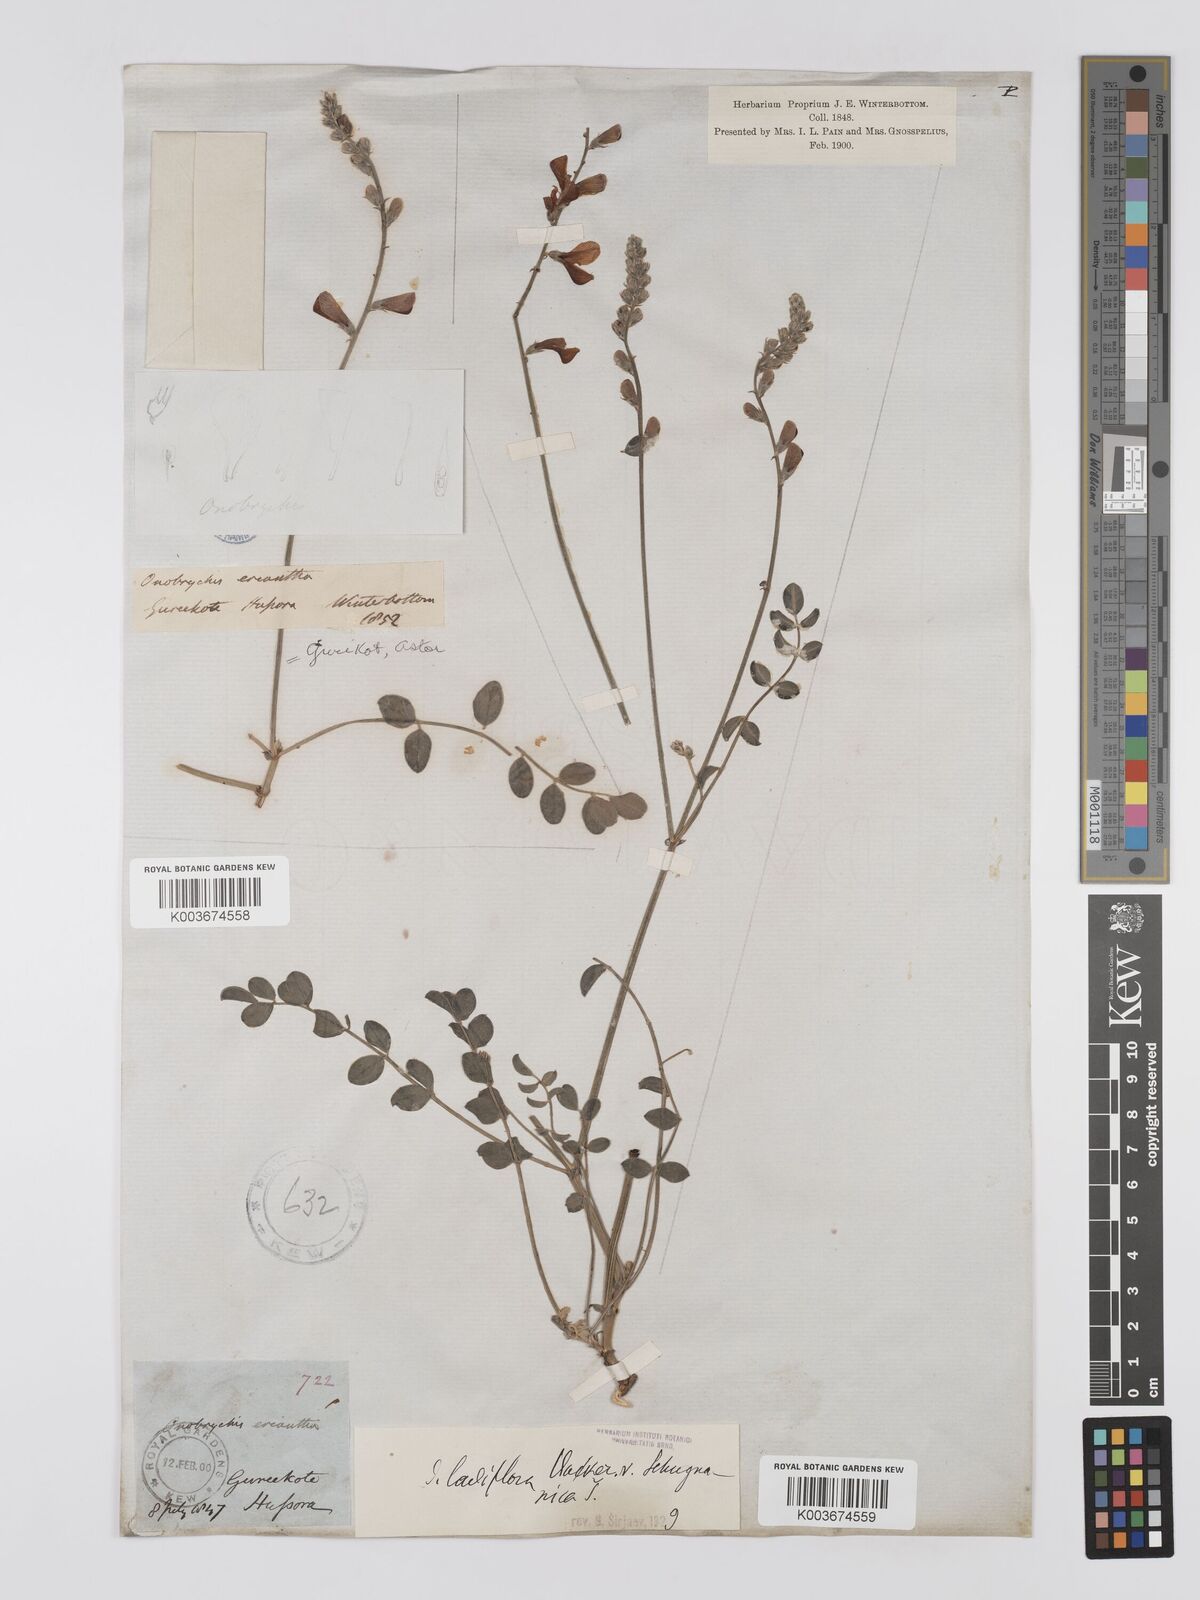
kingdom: Plantae
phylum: Tracheophyta
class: Magnoliopsida
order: Fabales
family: Fabaceae
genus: Onobrychis
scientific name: Onobrychis laxiflora
